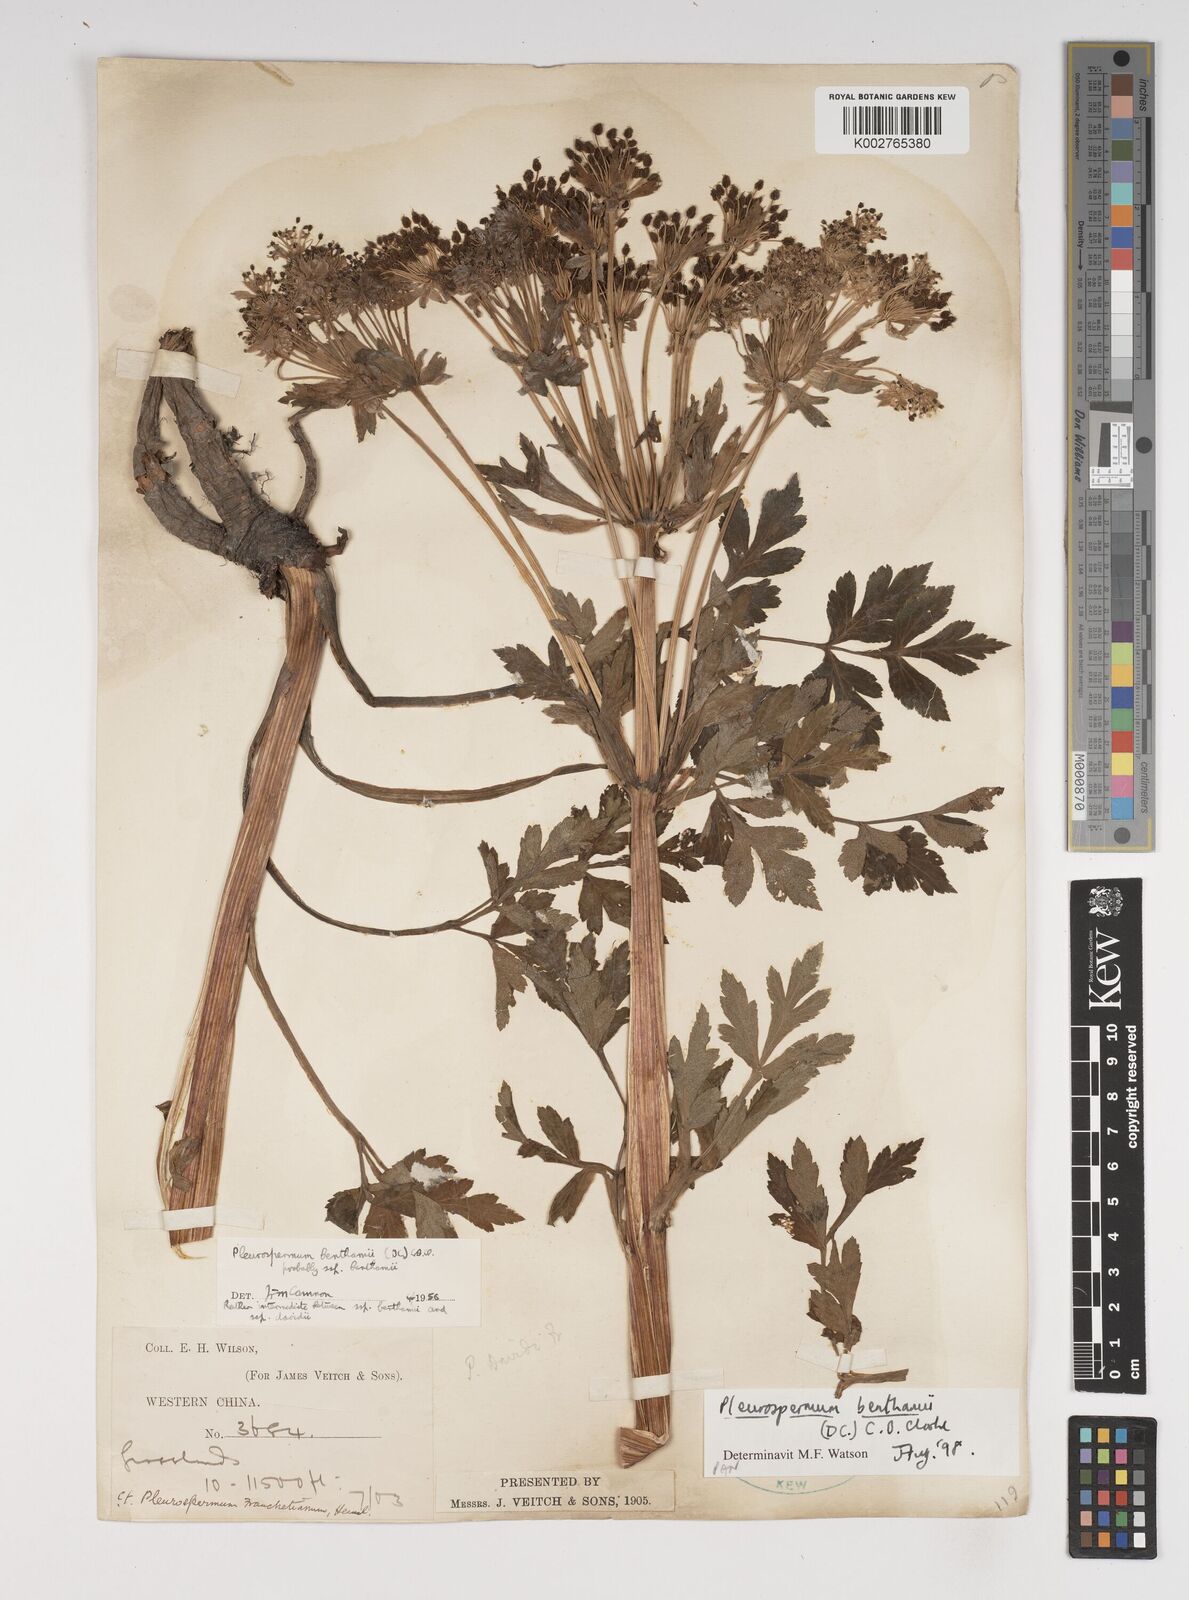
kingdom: Plantae
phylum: Tracheophyta
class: Magnoliopsida
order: Apiales
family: Apiaceae
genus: Hymenidium
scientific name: Hymenidium benthamii
